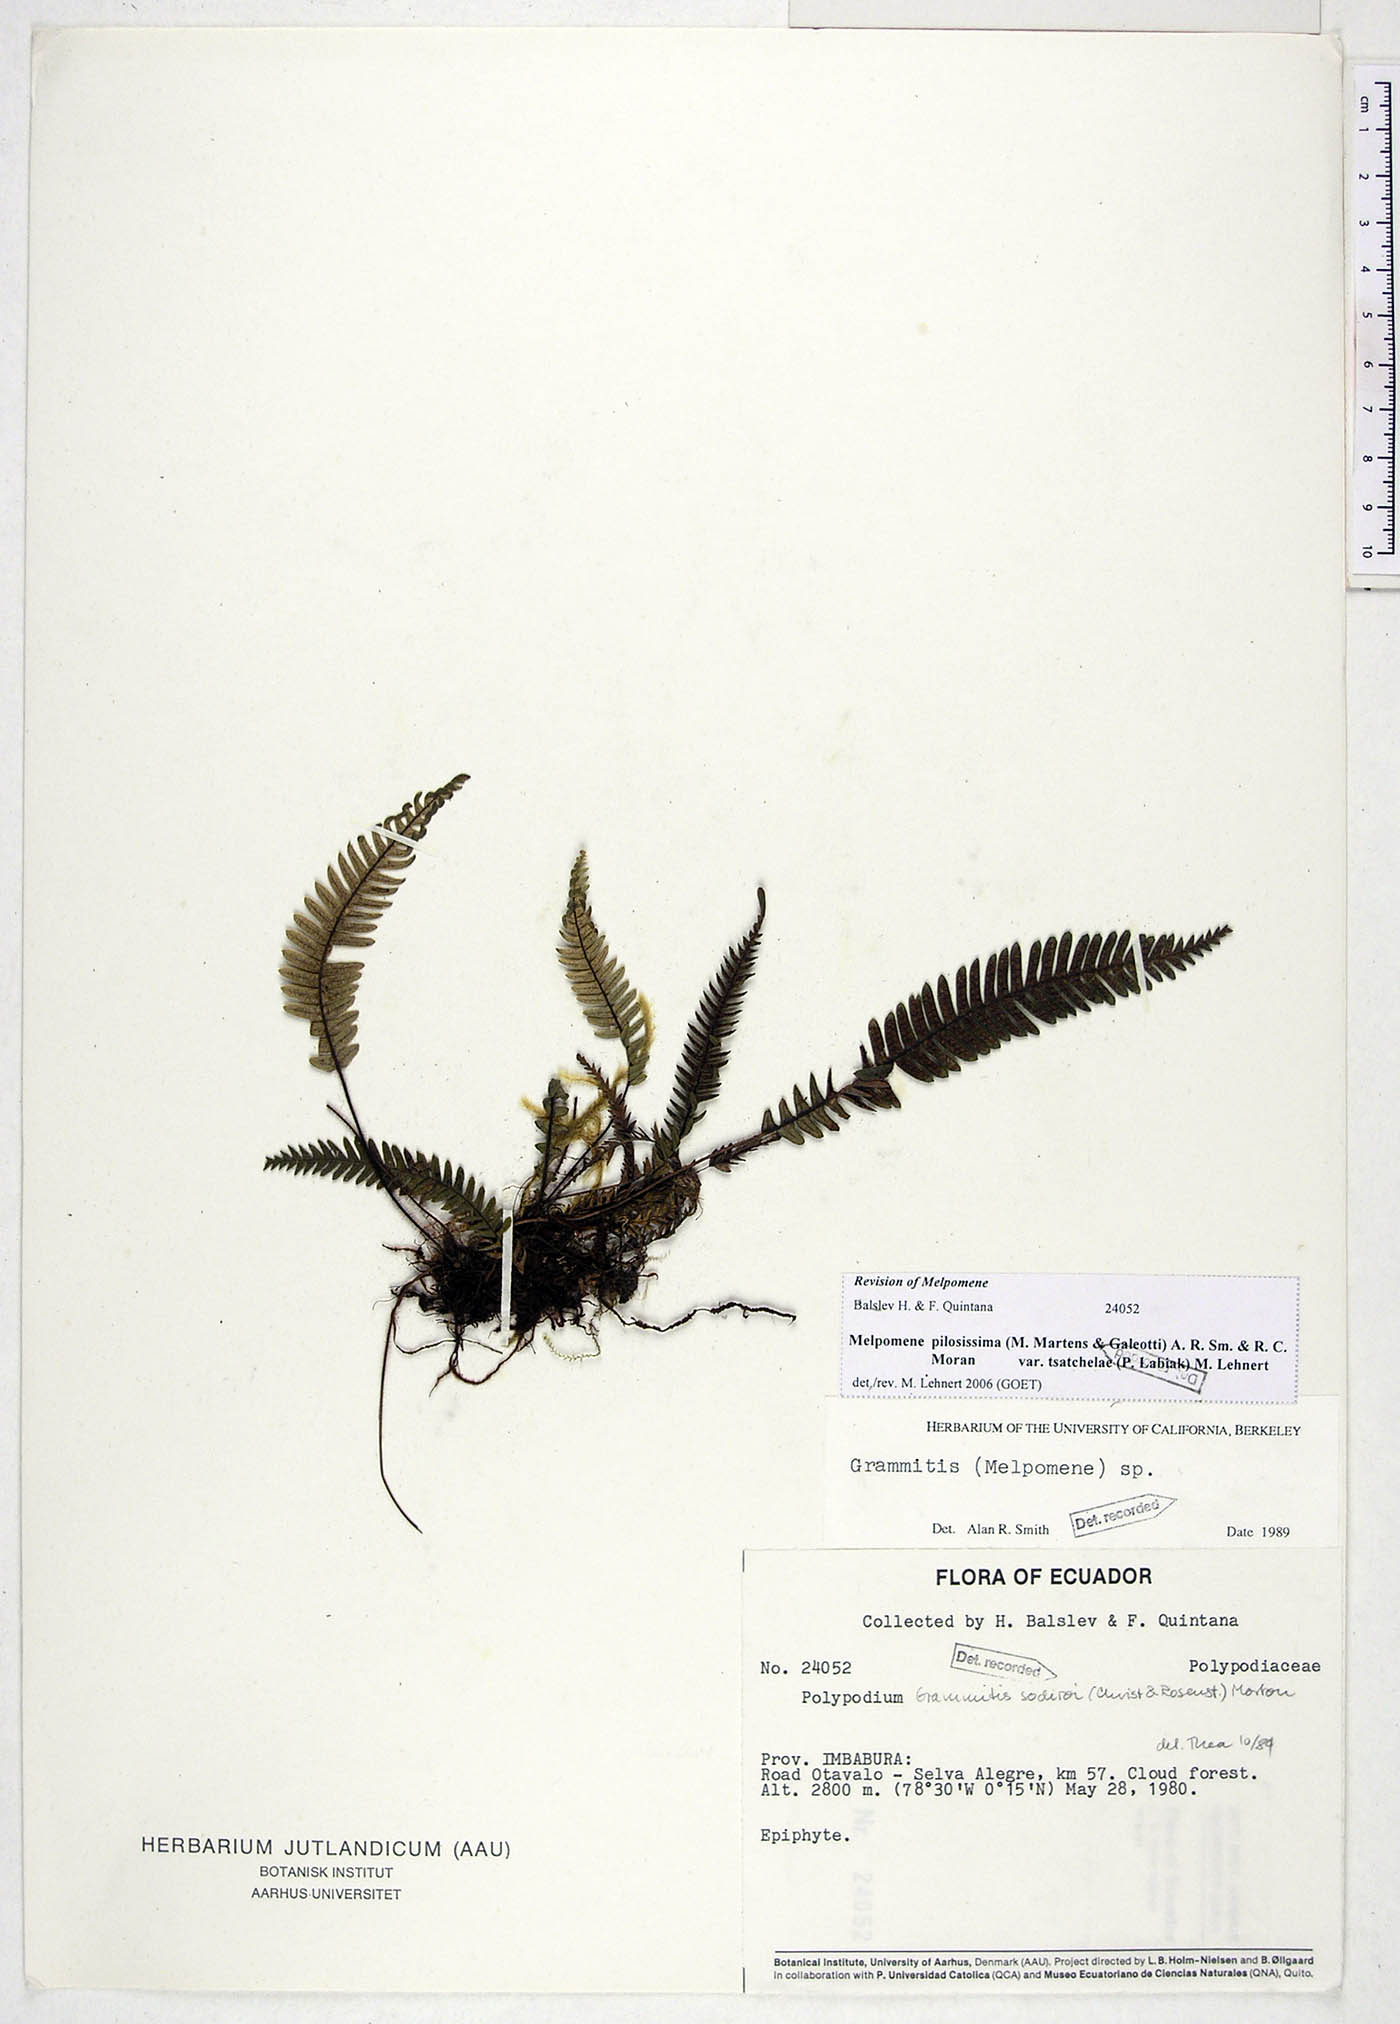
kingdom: Plantae
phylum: Tracheophyta
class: Polypodiopsida
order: Polypodiales
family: Polypodiaceae
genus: Melpomene
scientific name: Melpomene pilosissima
